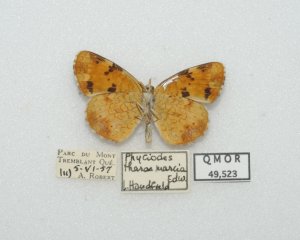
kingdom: Animalia
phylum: Arthropoda
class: Insecta
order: Lepidoptera
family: Nymphalidae
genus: Phyciodes
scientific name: Phyciodes tharos
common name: Northern Crescent
